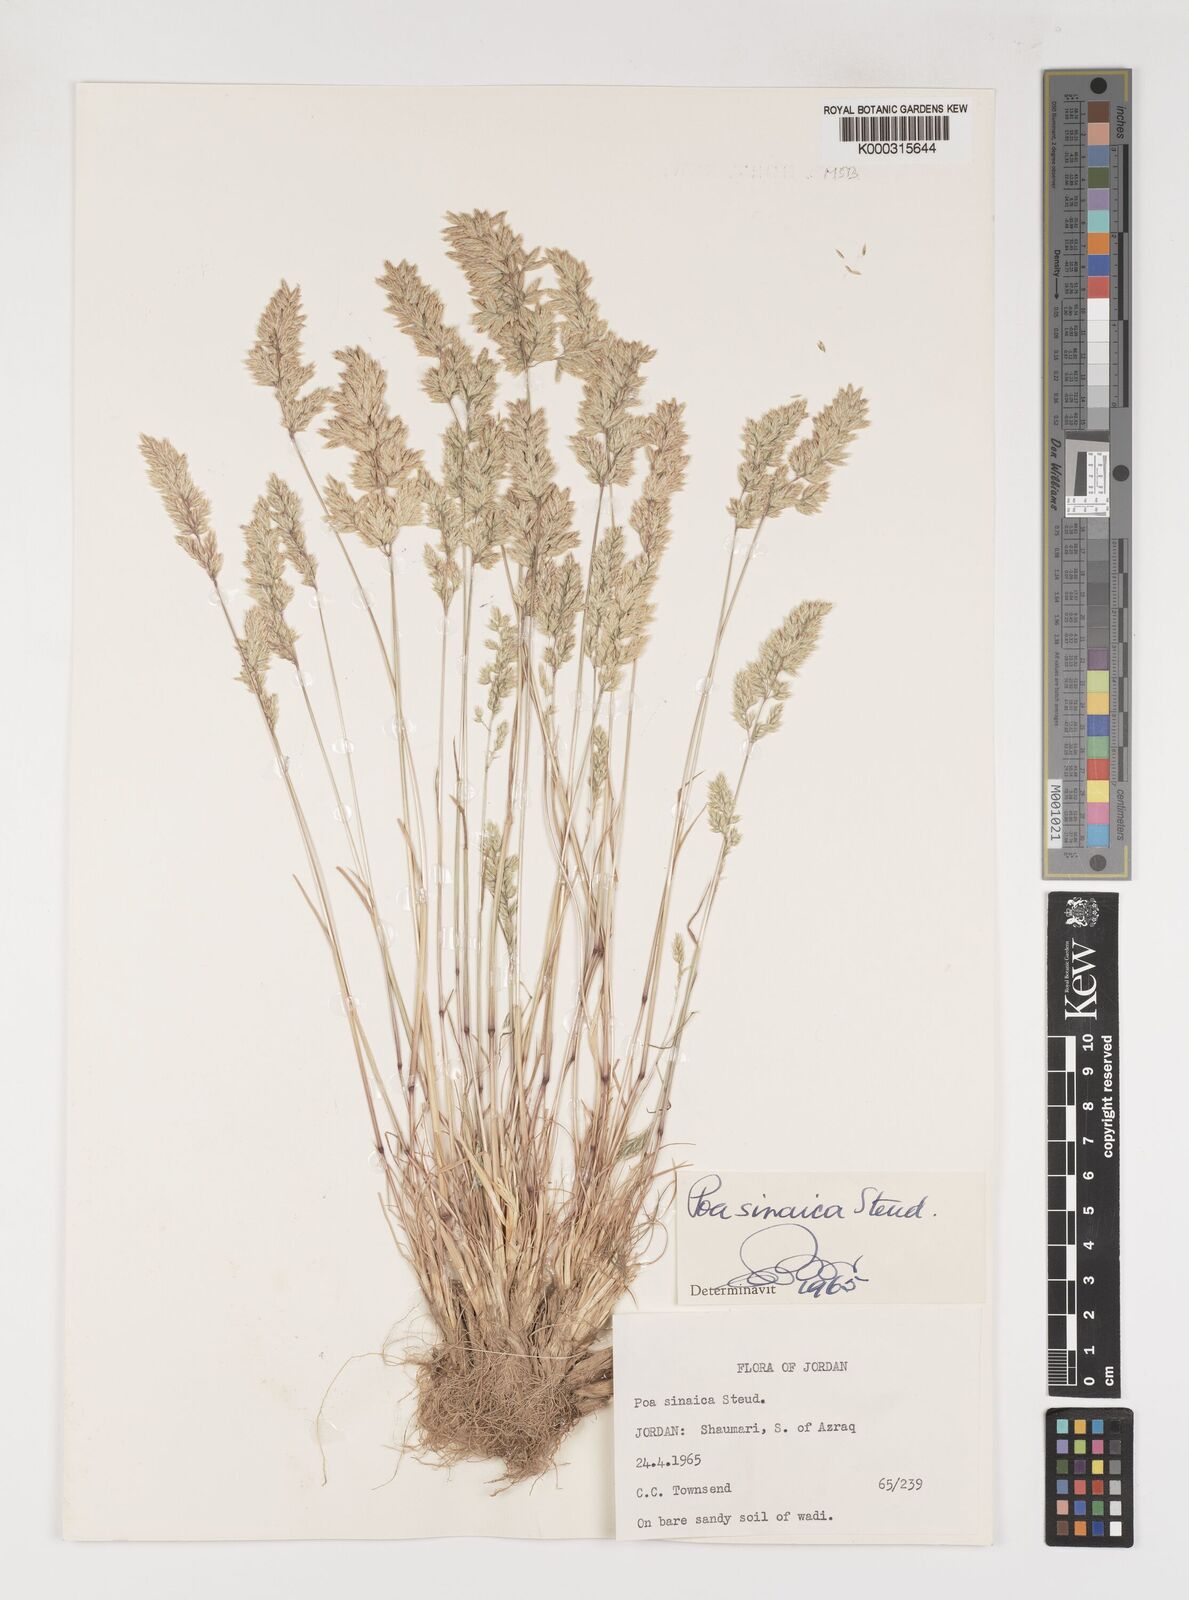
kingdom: Plantae
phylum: Tracheophyta
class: Liliopsida
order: Poales
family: Poaceae
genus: Poa
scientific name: Poa sinaica
